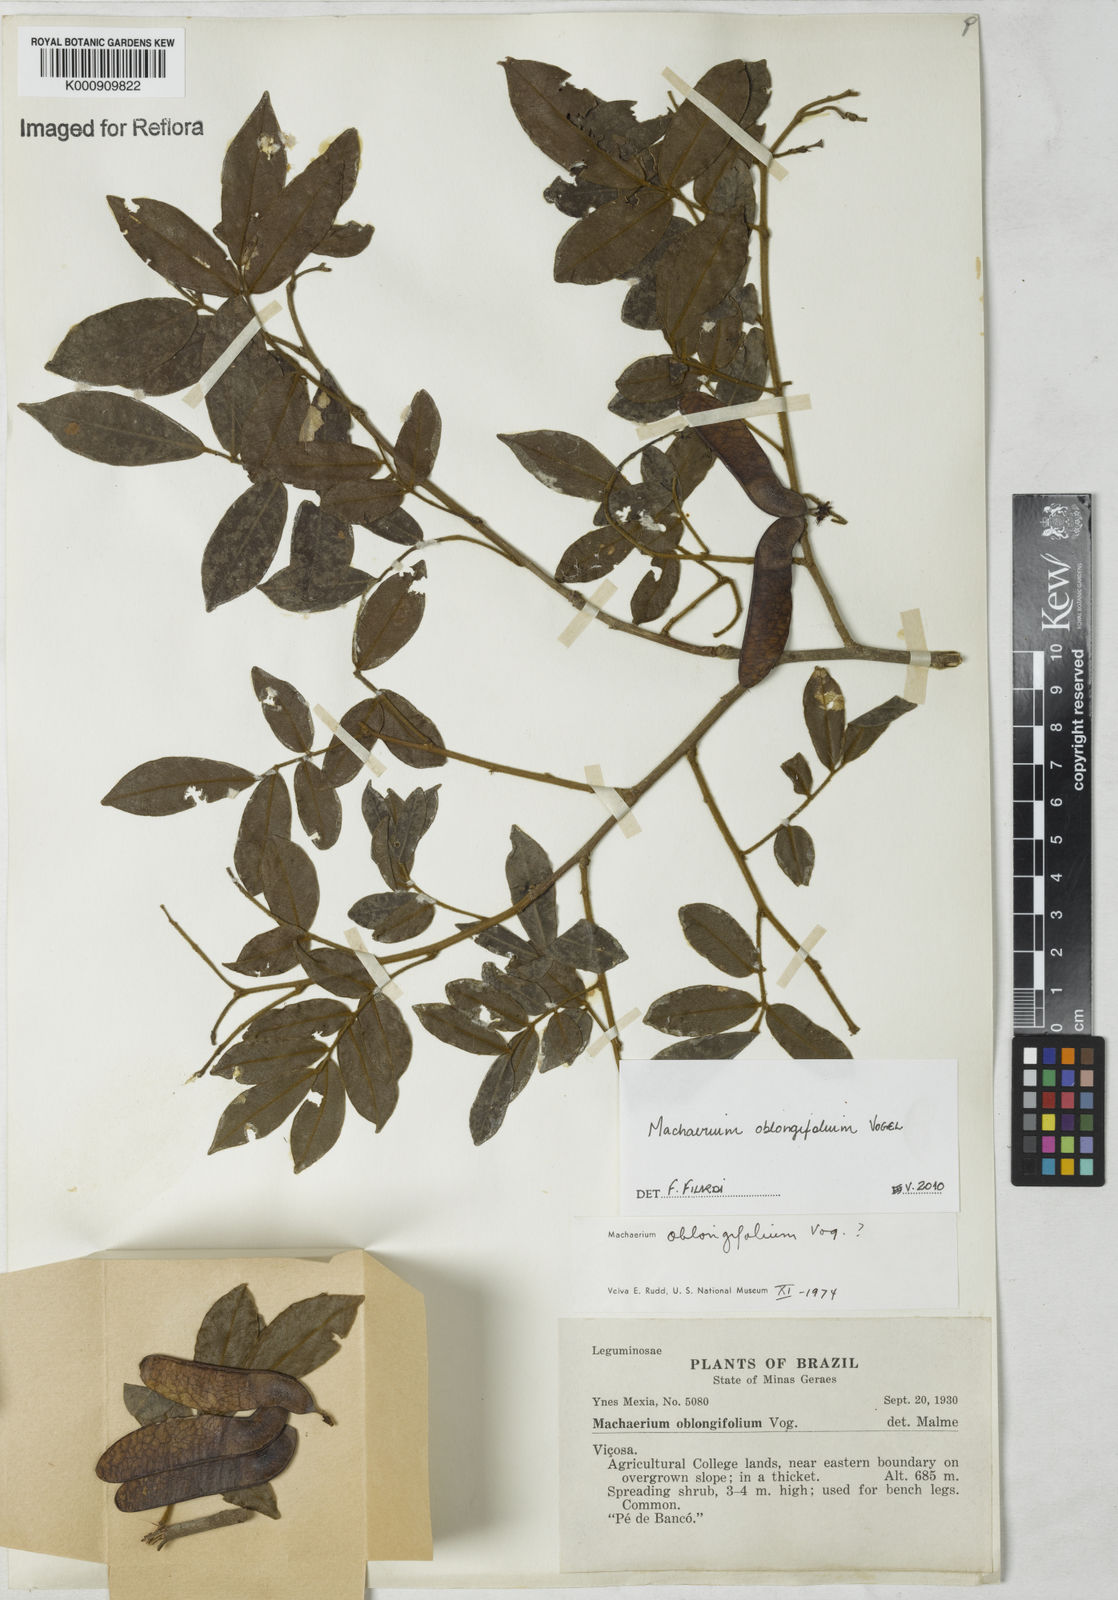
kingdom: Plantae
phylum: Tracheophyta
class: Magnoliopsida
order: Fabales
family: Fabaceae
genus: Machaerium
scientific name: Machaerium oblongifolium
